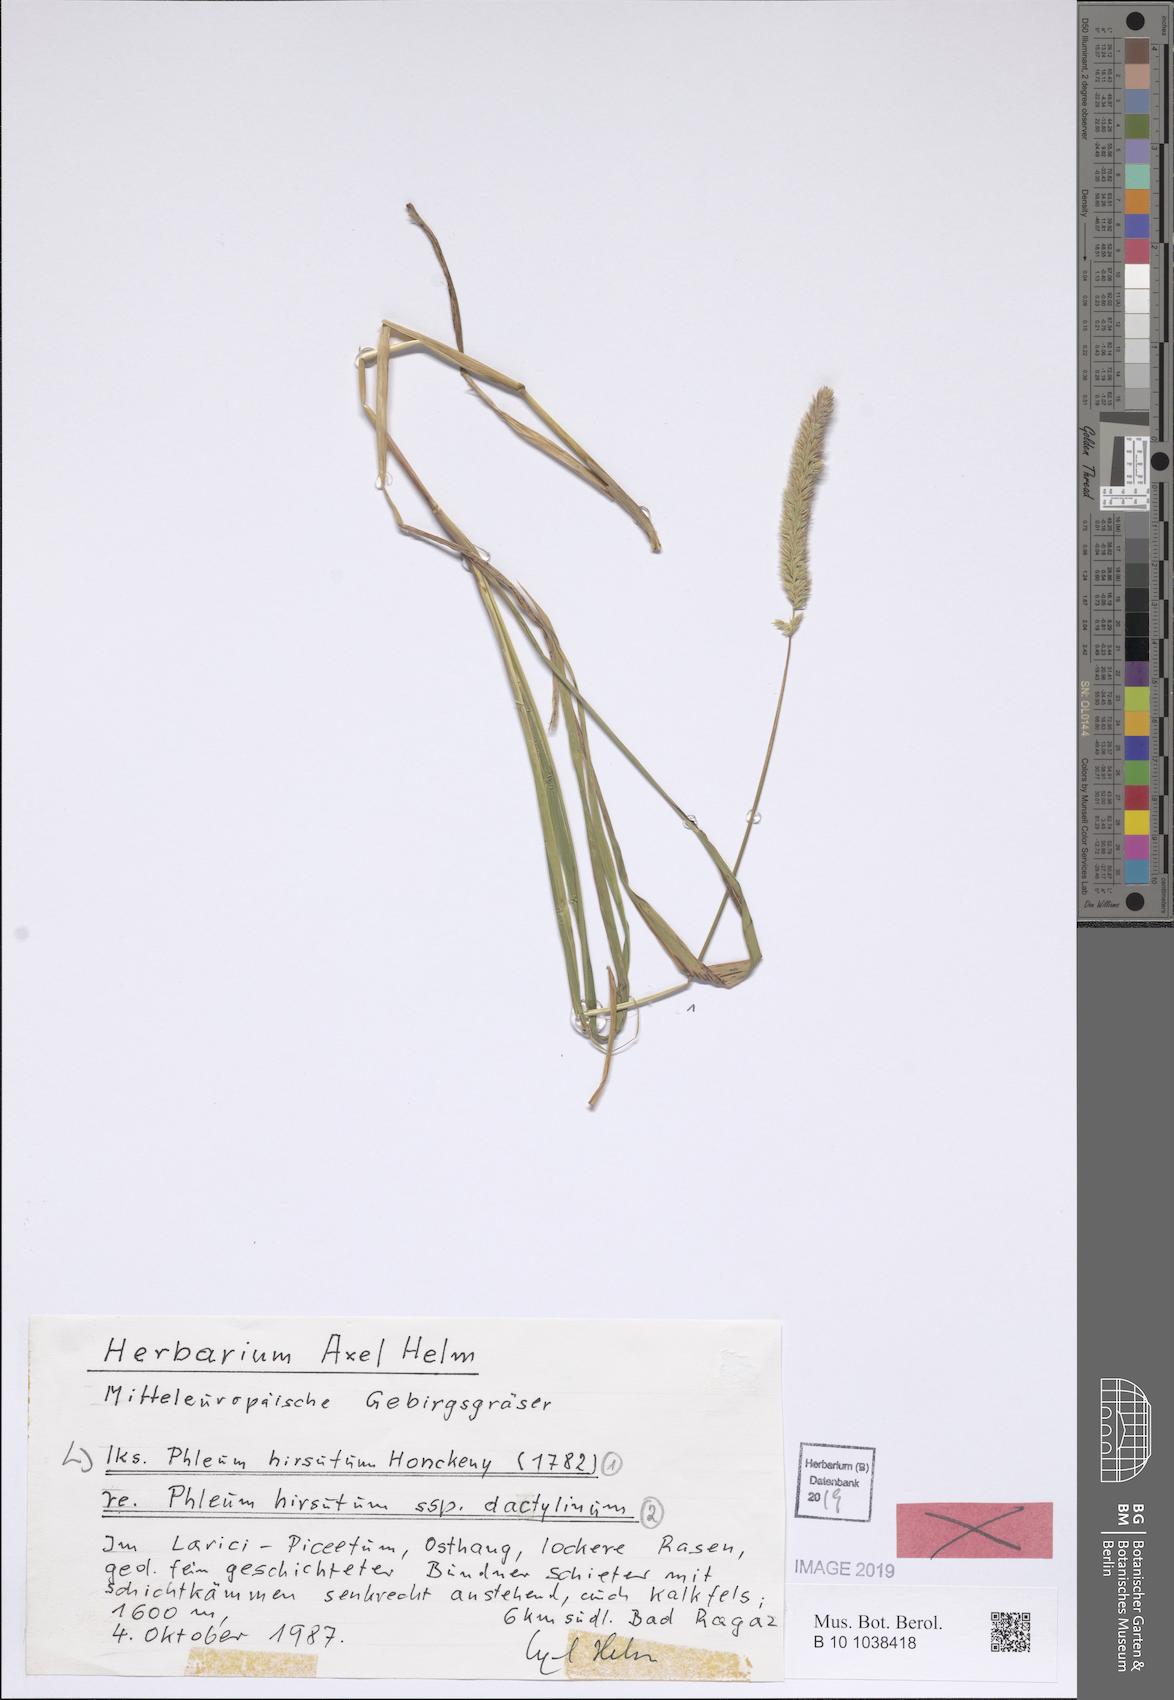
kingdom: Plantae
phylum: Tracheophyta
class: Liliopsida
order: Poales
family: Poaceae
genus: Phleum
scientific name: Phleum hirsutum
